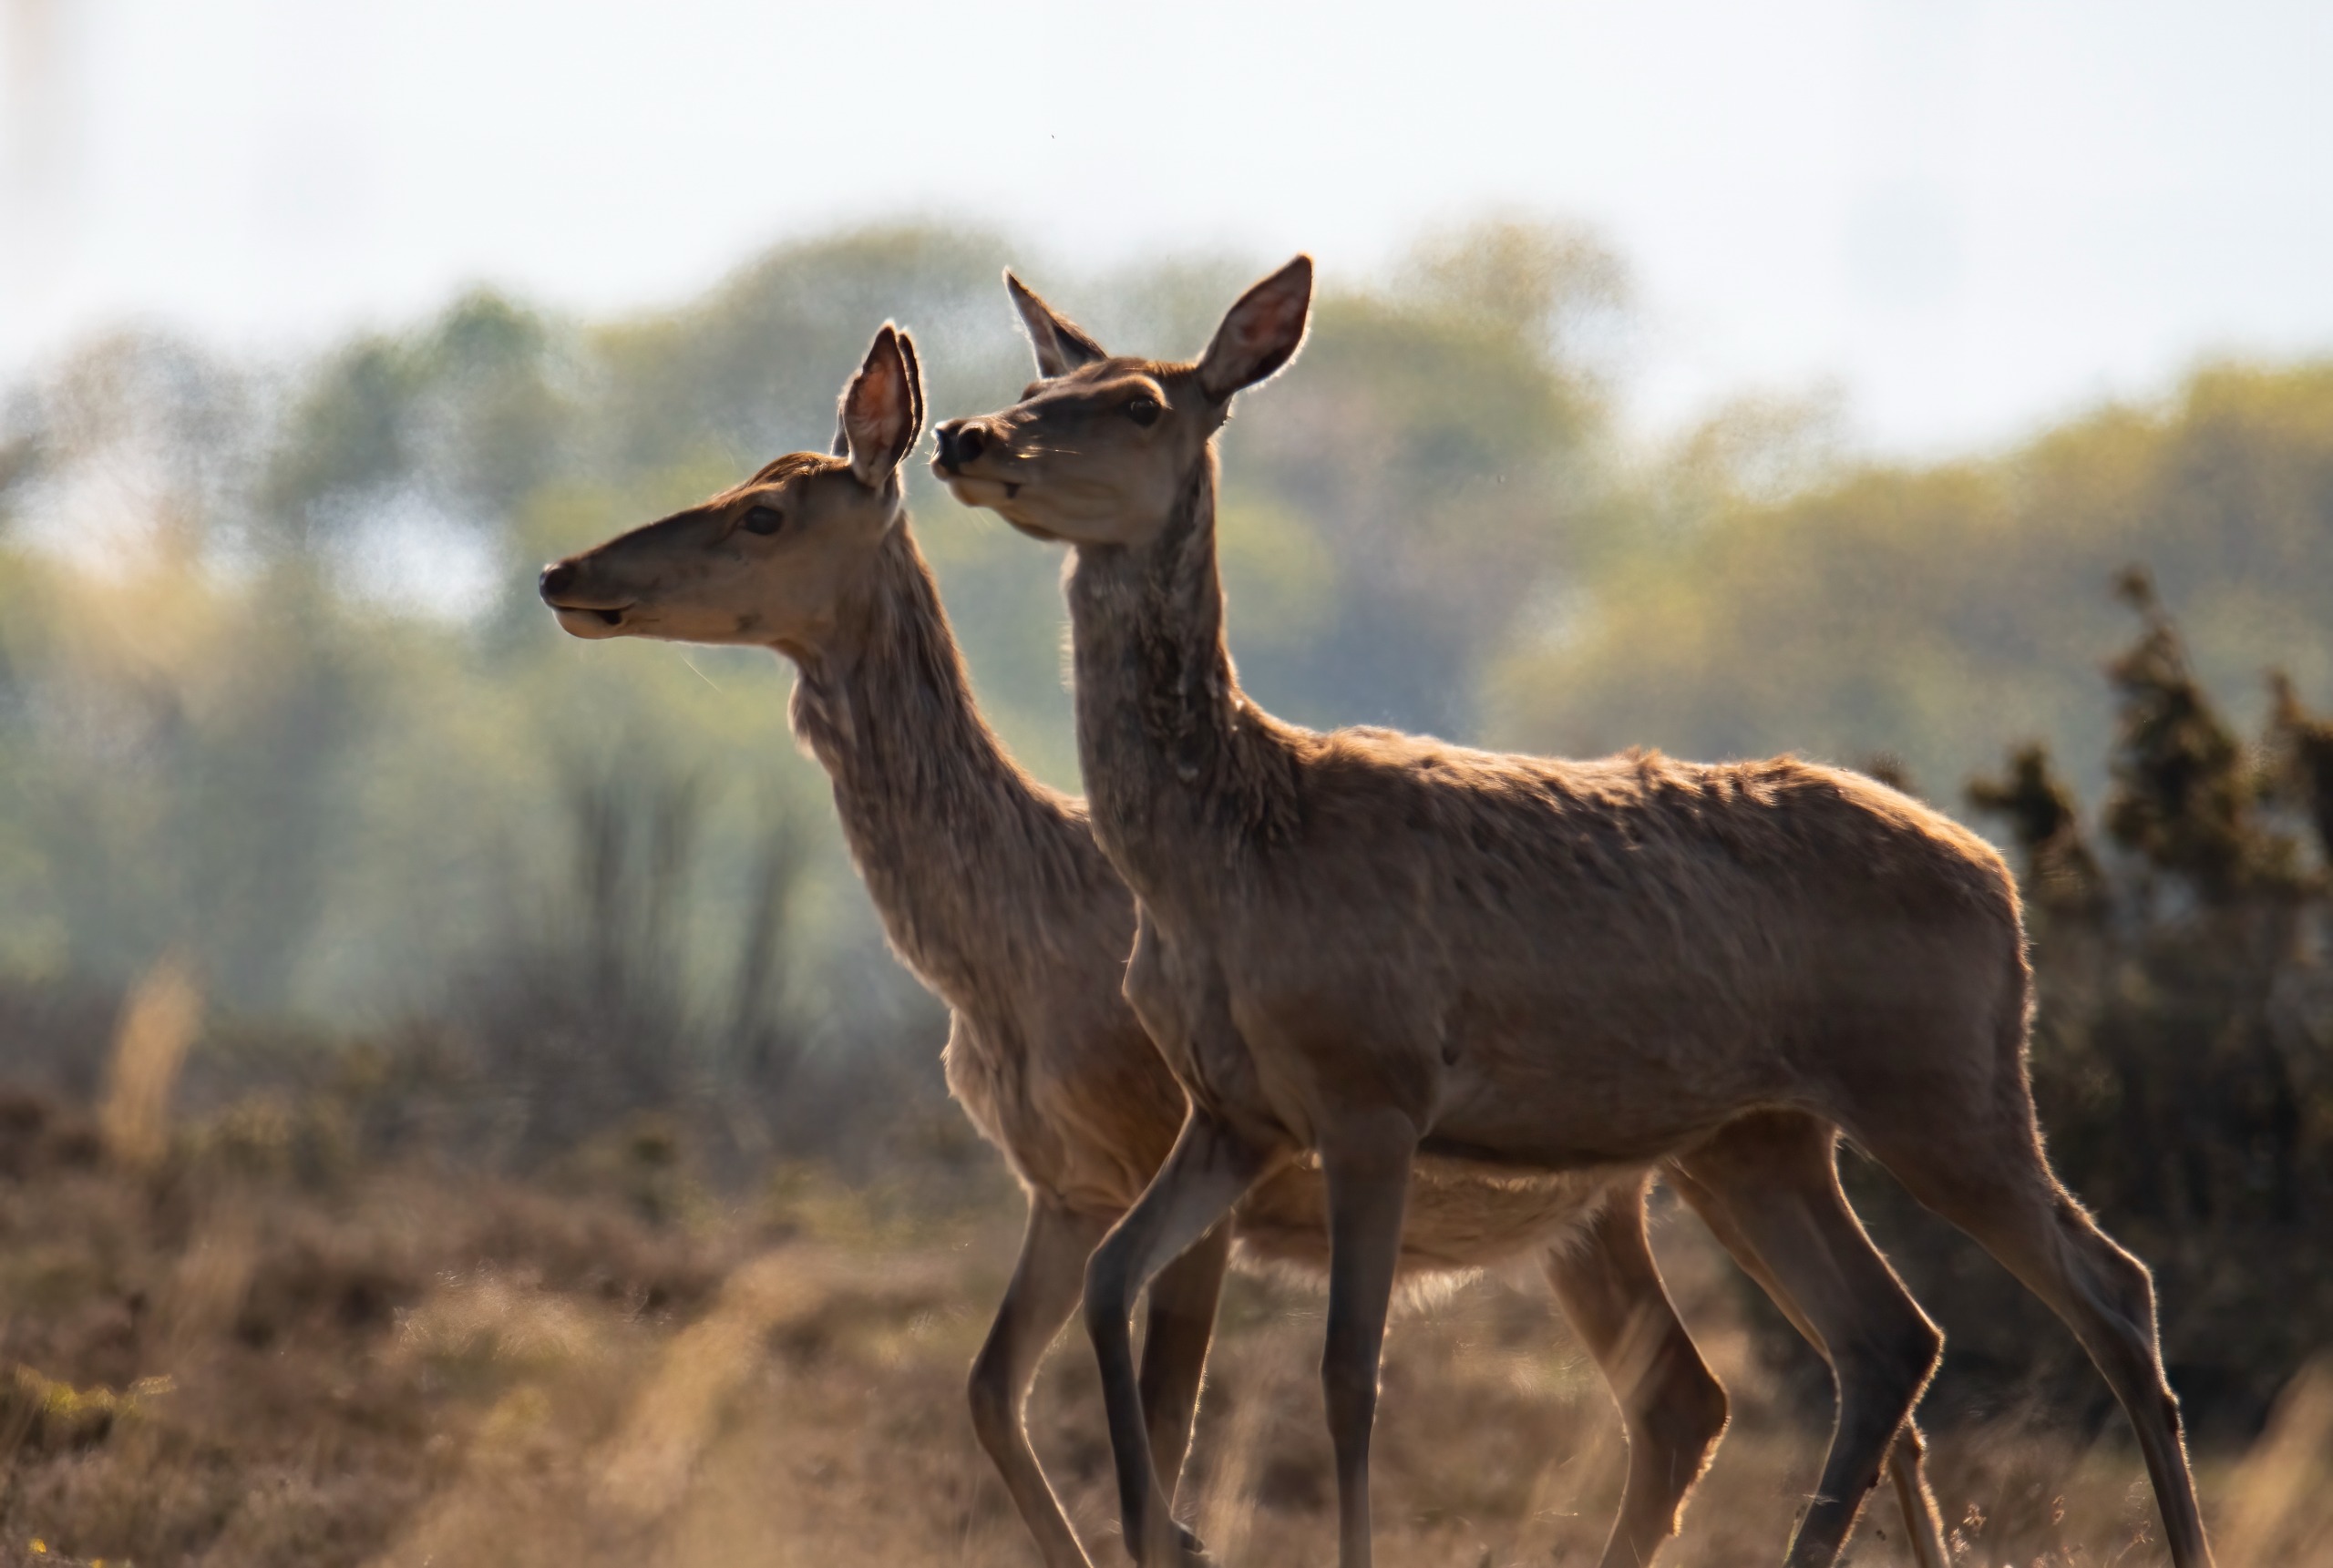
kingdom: Animalia
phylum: Chordata
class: Mammalia
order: Artiodactyla
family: Cervidae
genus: Cervus
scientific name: Cervus elaphus
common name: Krondyr
